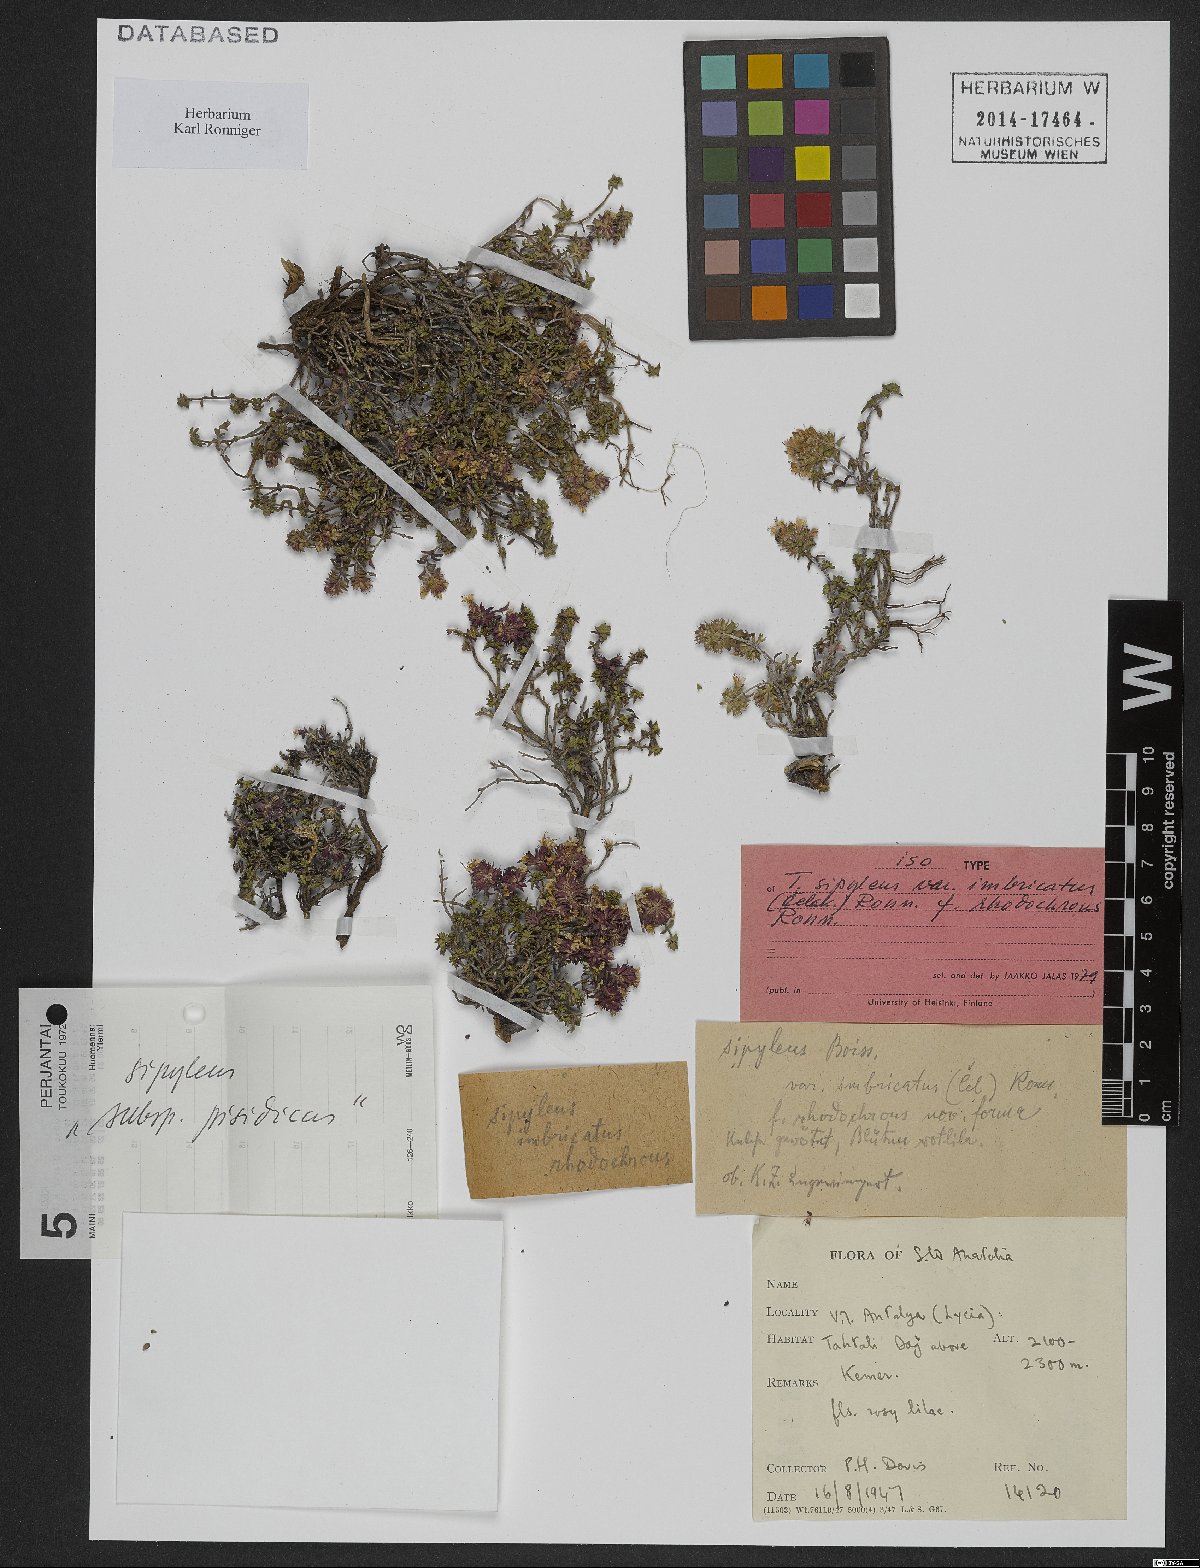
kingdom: Plantae
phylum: Tracheophyta
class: Magnoliopsida
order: Lamiales
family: Lamiaceae
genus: Thymus
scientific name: Thymus sipyleus
